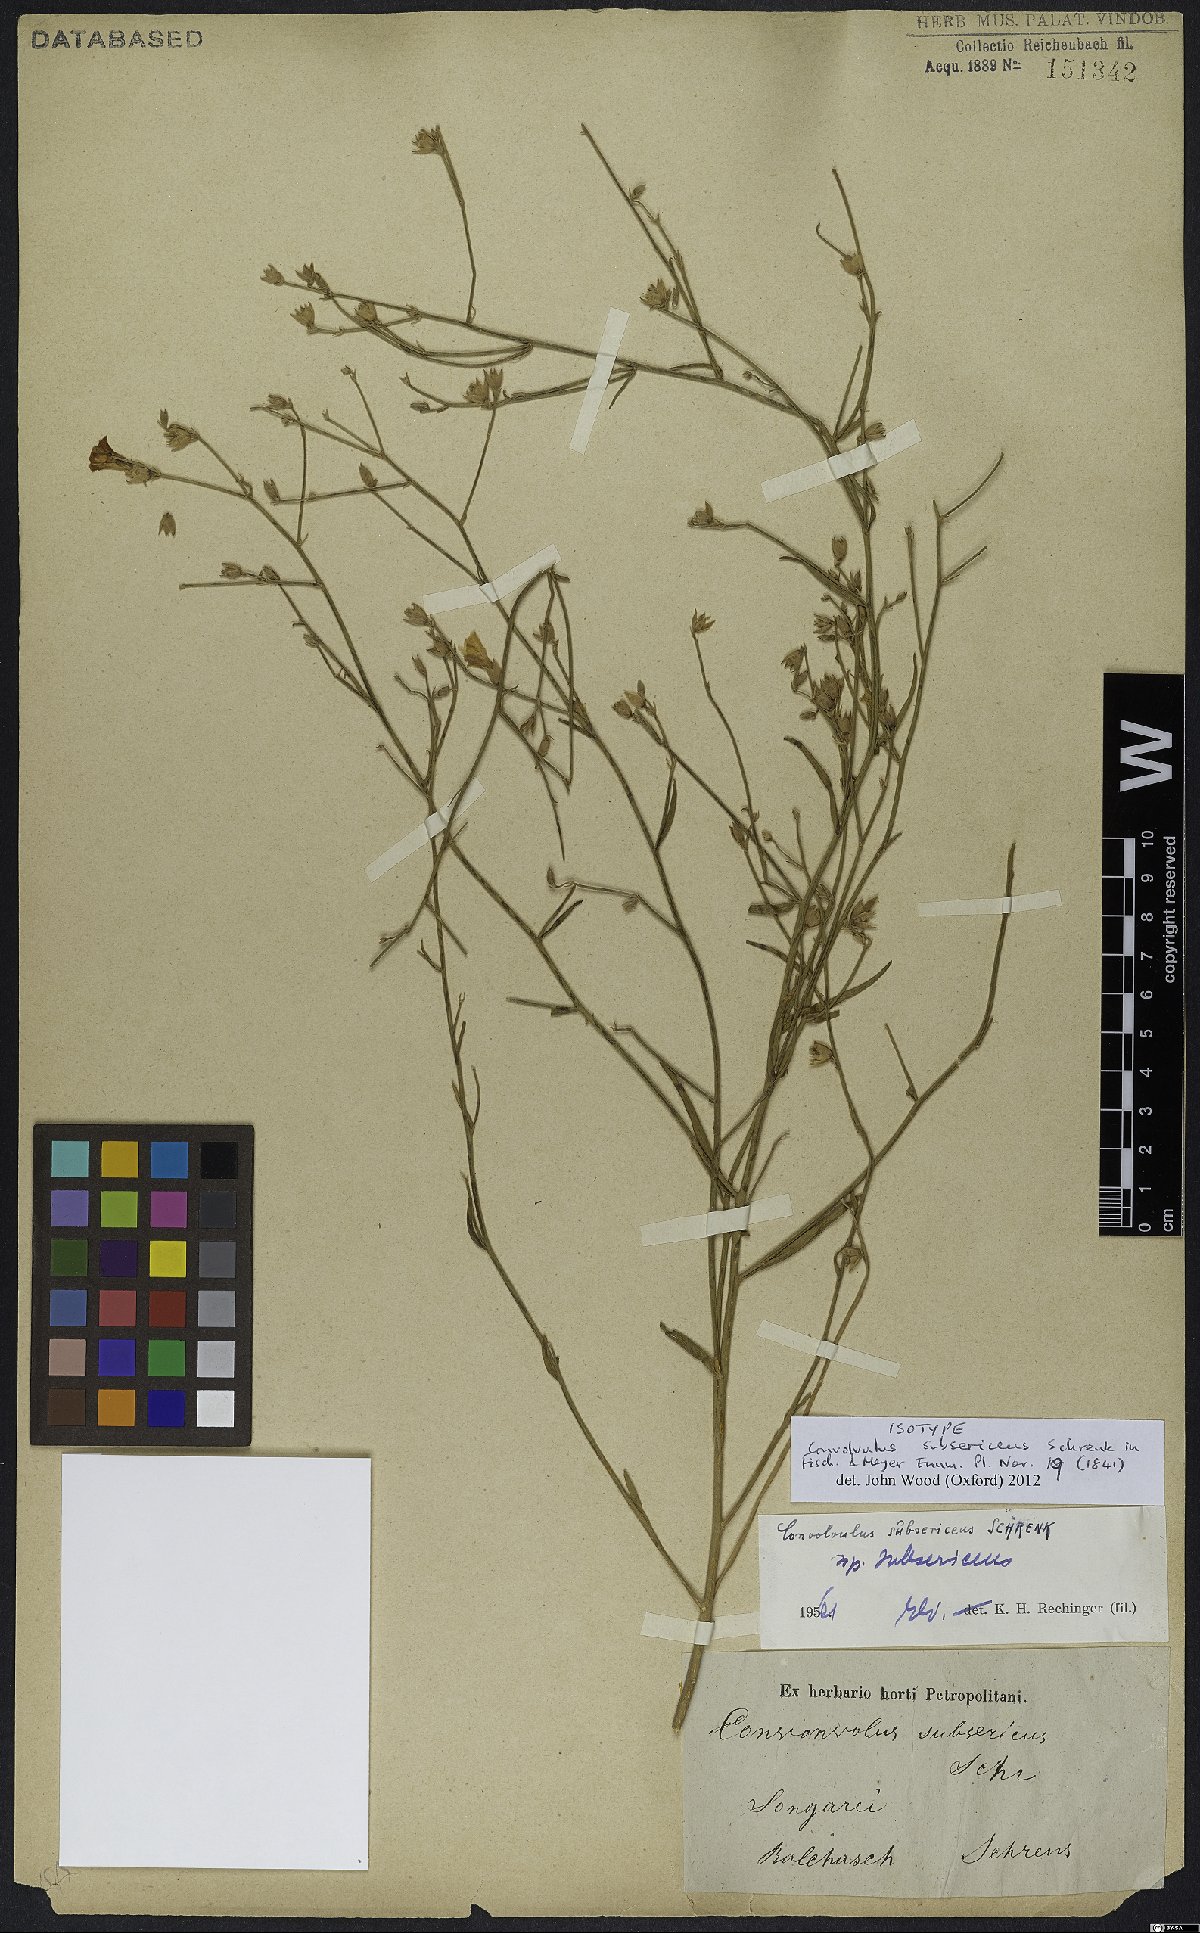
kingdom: Plantae
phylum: Tracheophyta
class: Magnoliopsida
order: Solanales
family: Convolvulaceae
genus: Convolvulus
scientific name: Convolvulus subsericeus
